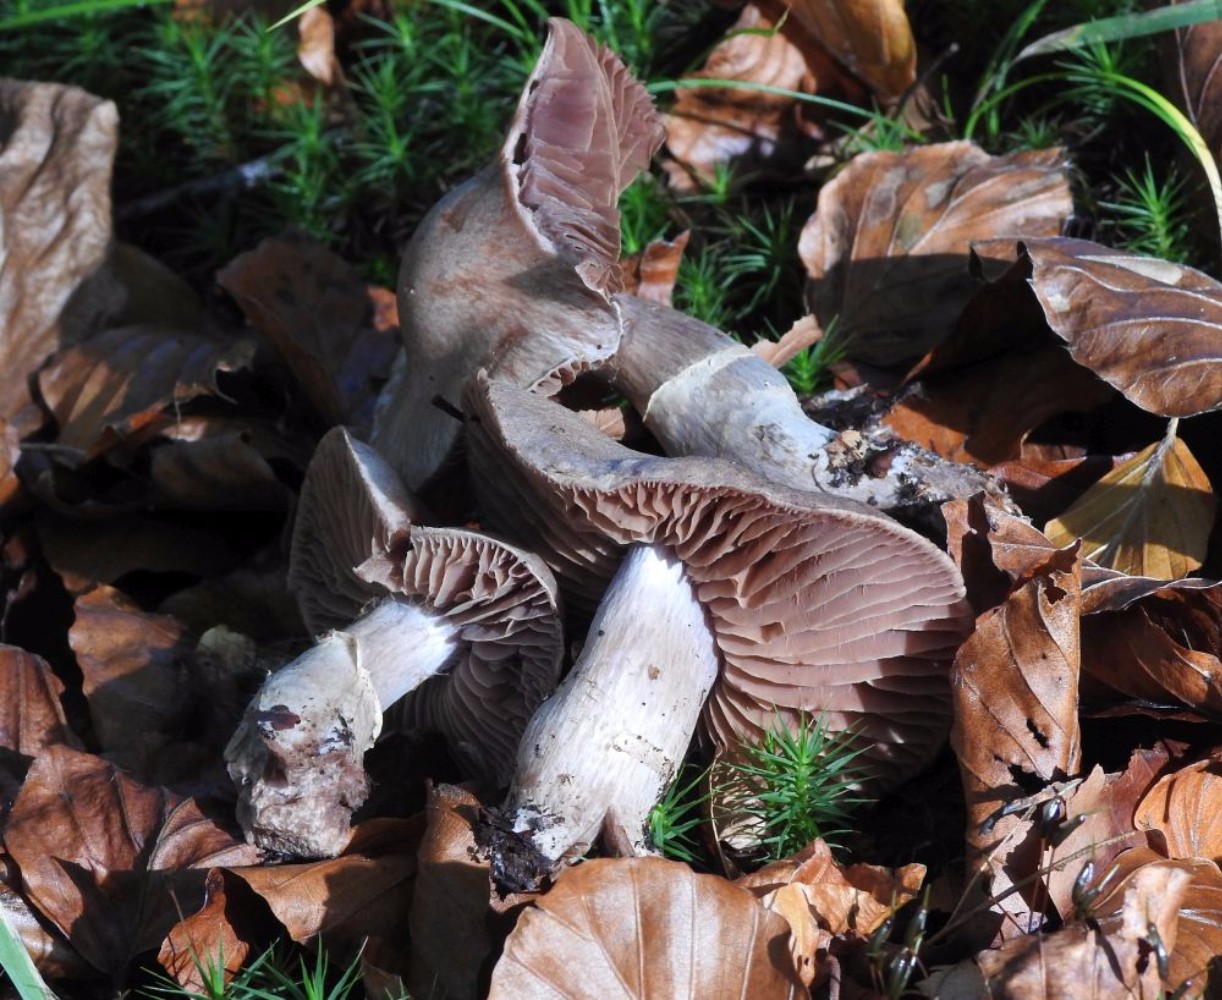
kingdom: Fungi
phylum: Basidiomycota
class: Agaricomycetes
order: Agaricales
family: Cortinariaceae
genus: Cortinarius
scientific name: Cortinarius torvus
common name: champignonagtig slørhat
